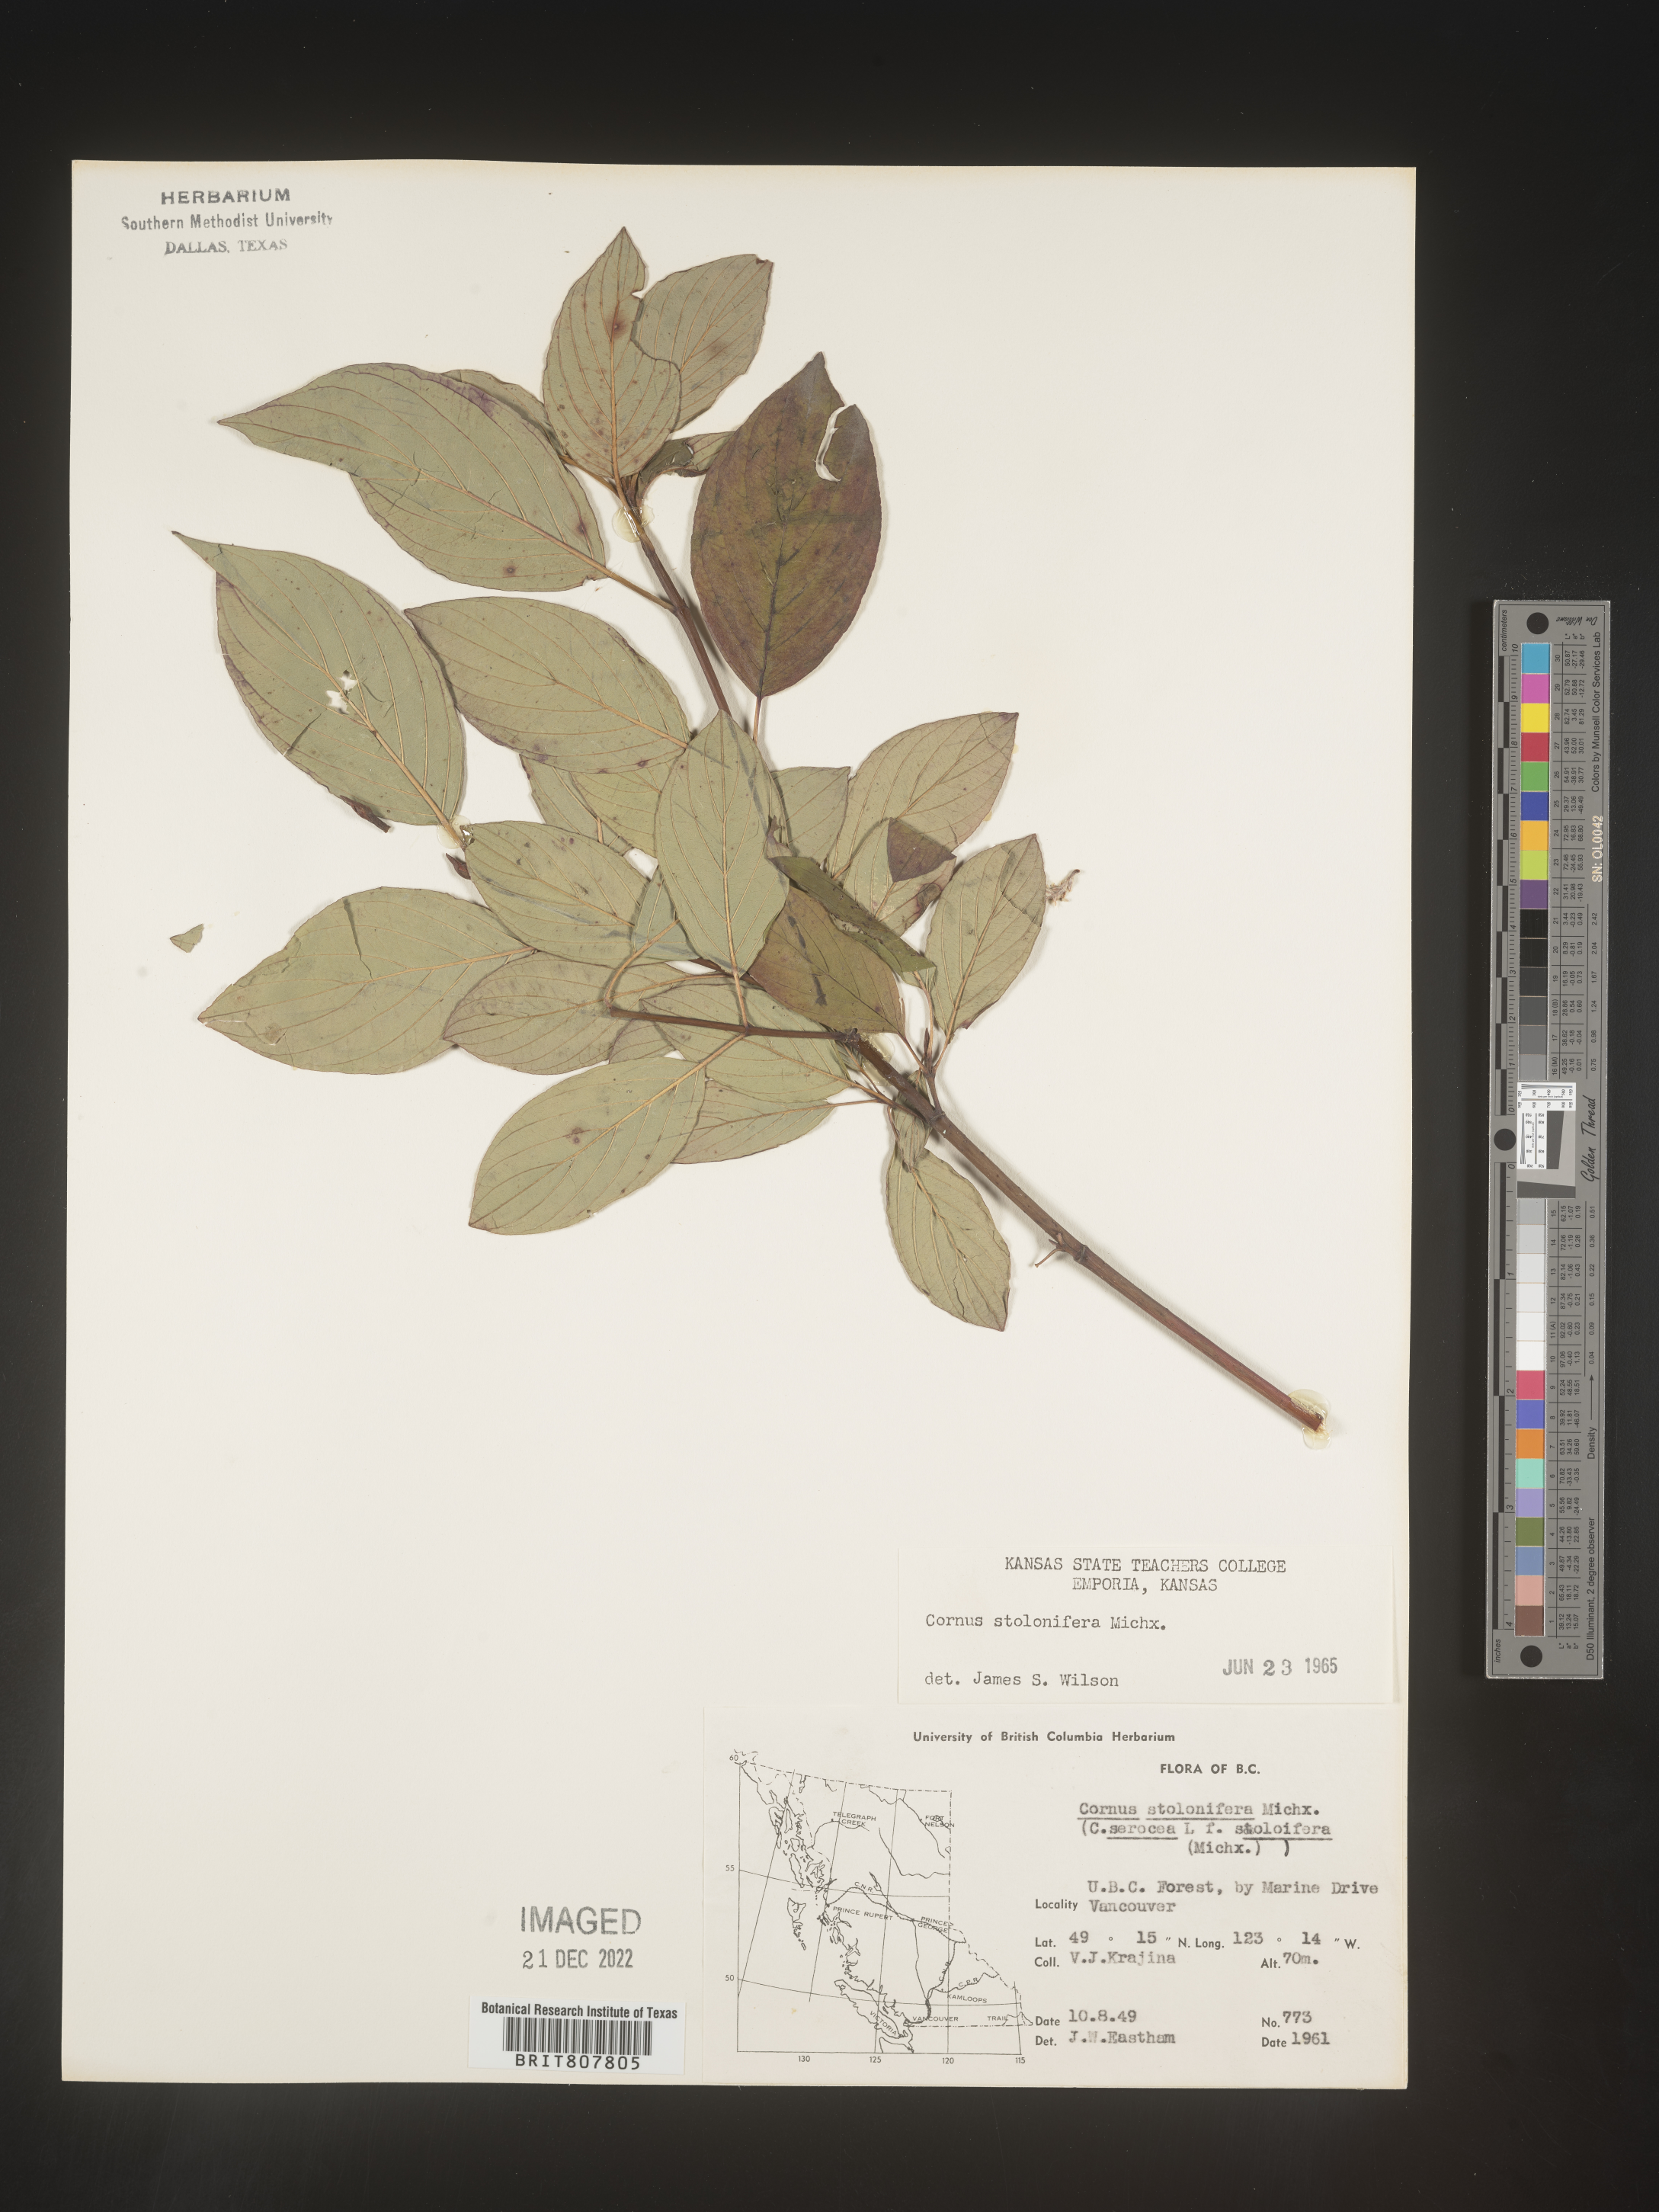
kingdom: Plantae
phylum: Tracheophyta
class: Magnoliopsida
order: Cornales
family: Cornaceae
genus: Cornus
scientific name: Cornus sericea
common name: Red-osier dogwood
